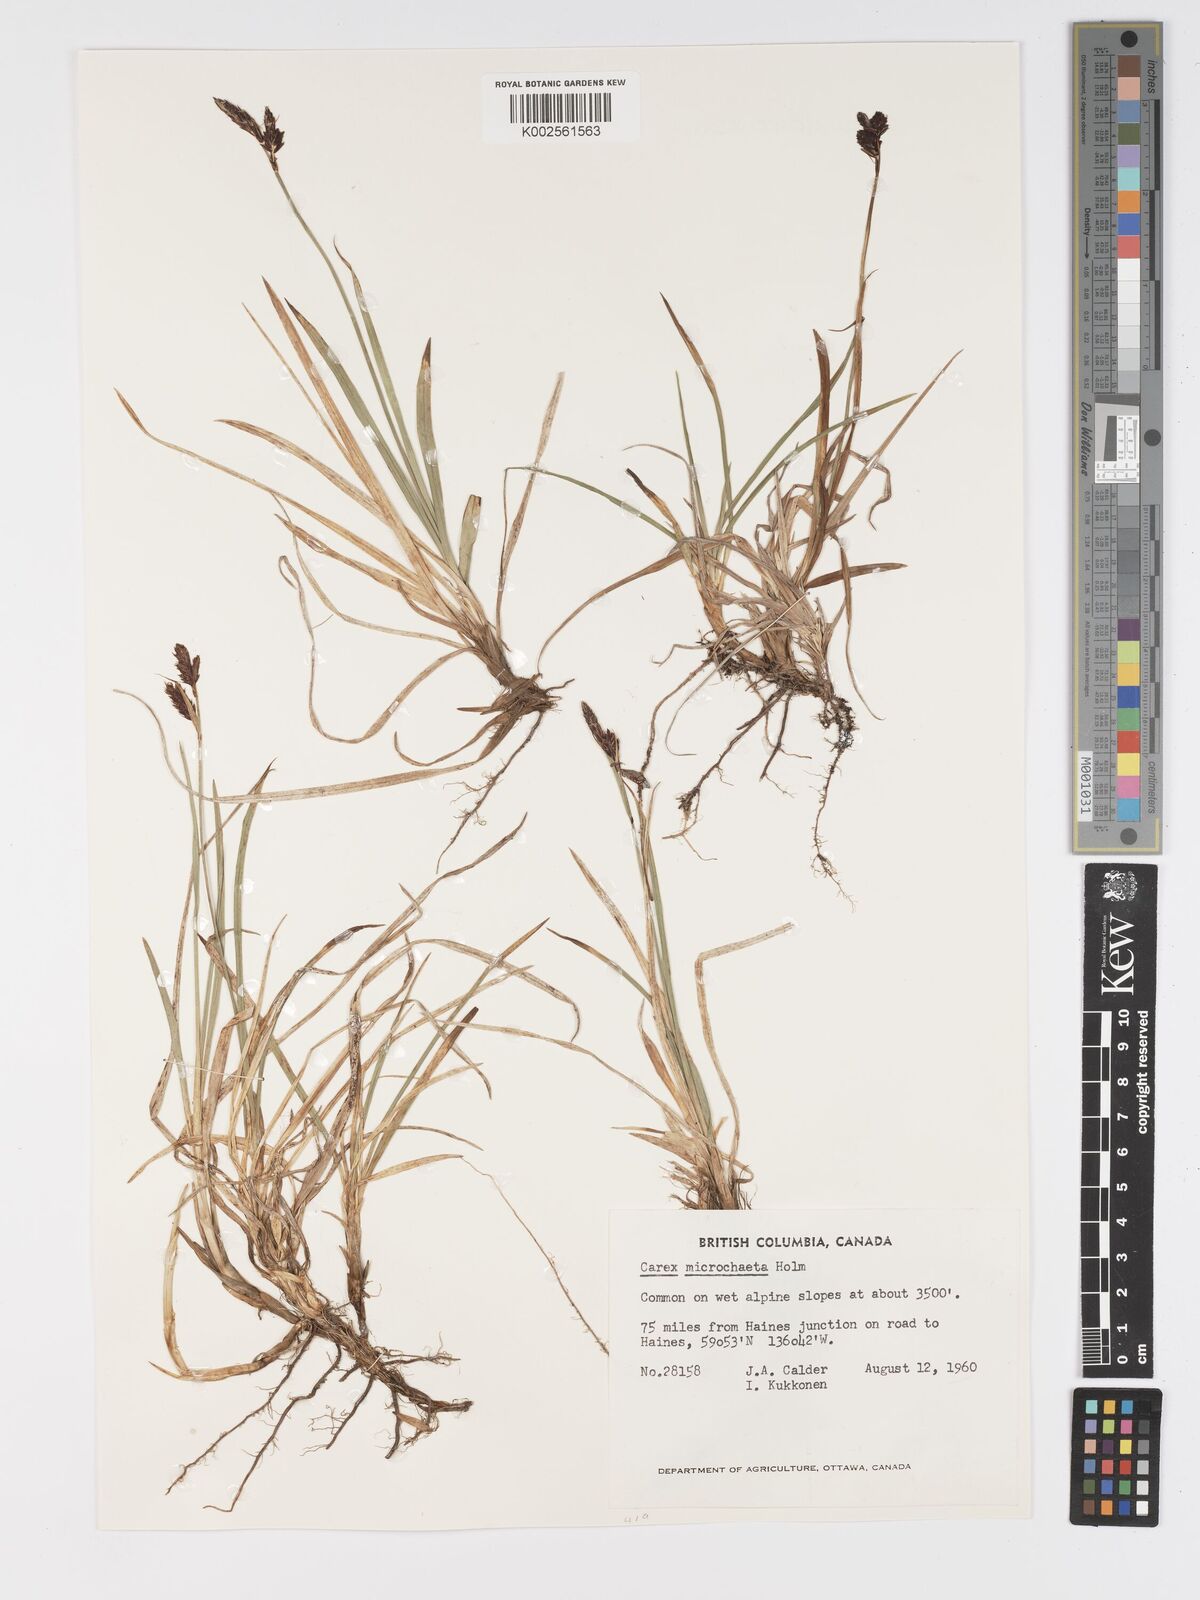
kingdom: Plantae
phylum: Tracheophyta
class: Liliopsida
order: Poales
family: Cyperaceae
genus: Carex
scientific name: Carex podocarpa
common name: Alpine sedge
